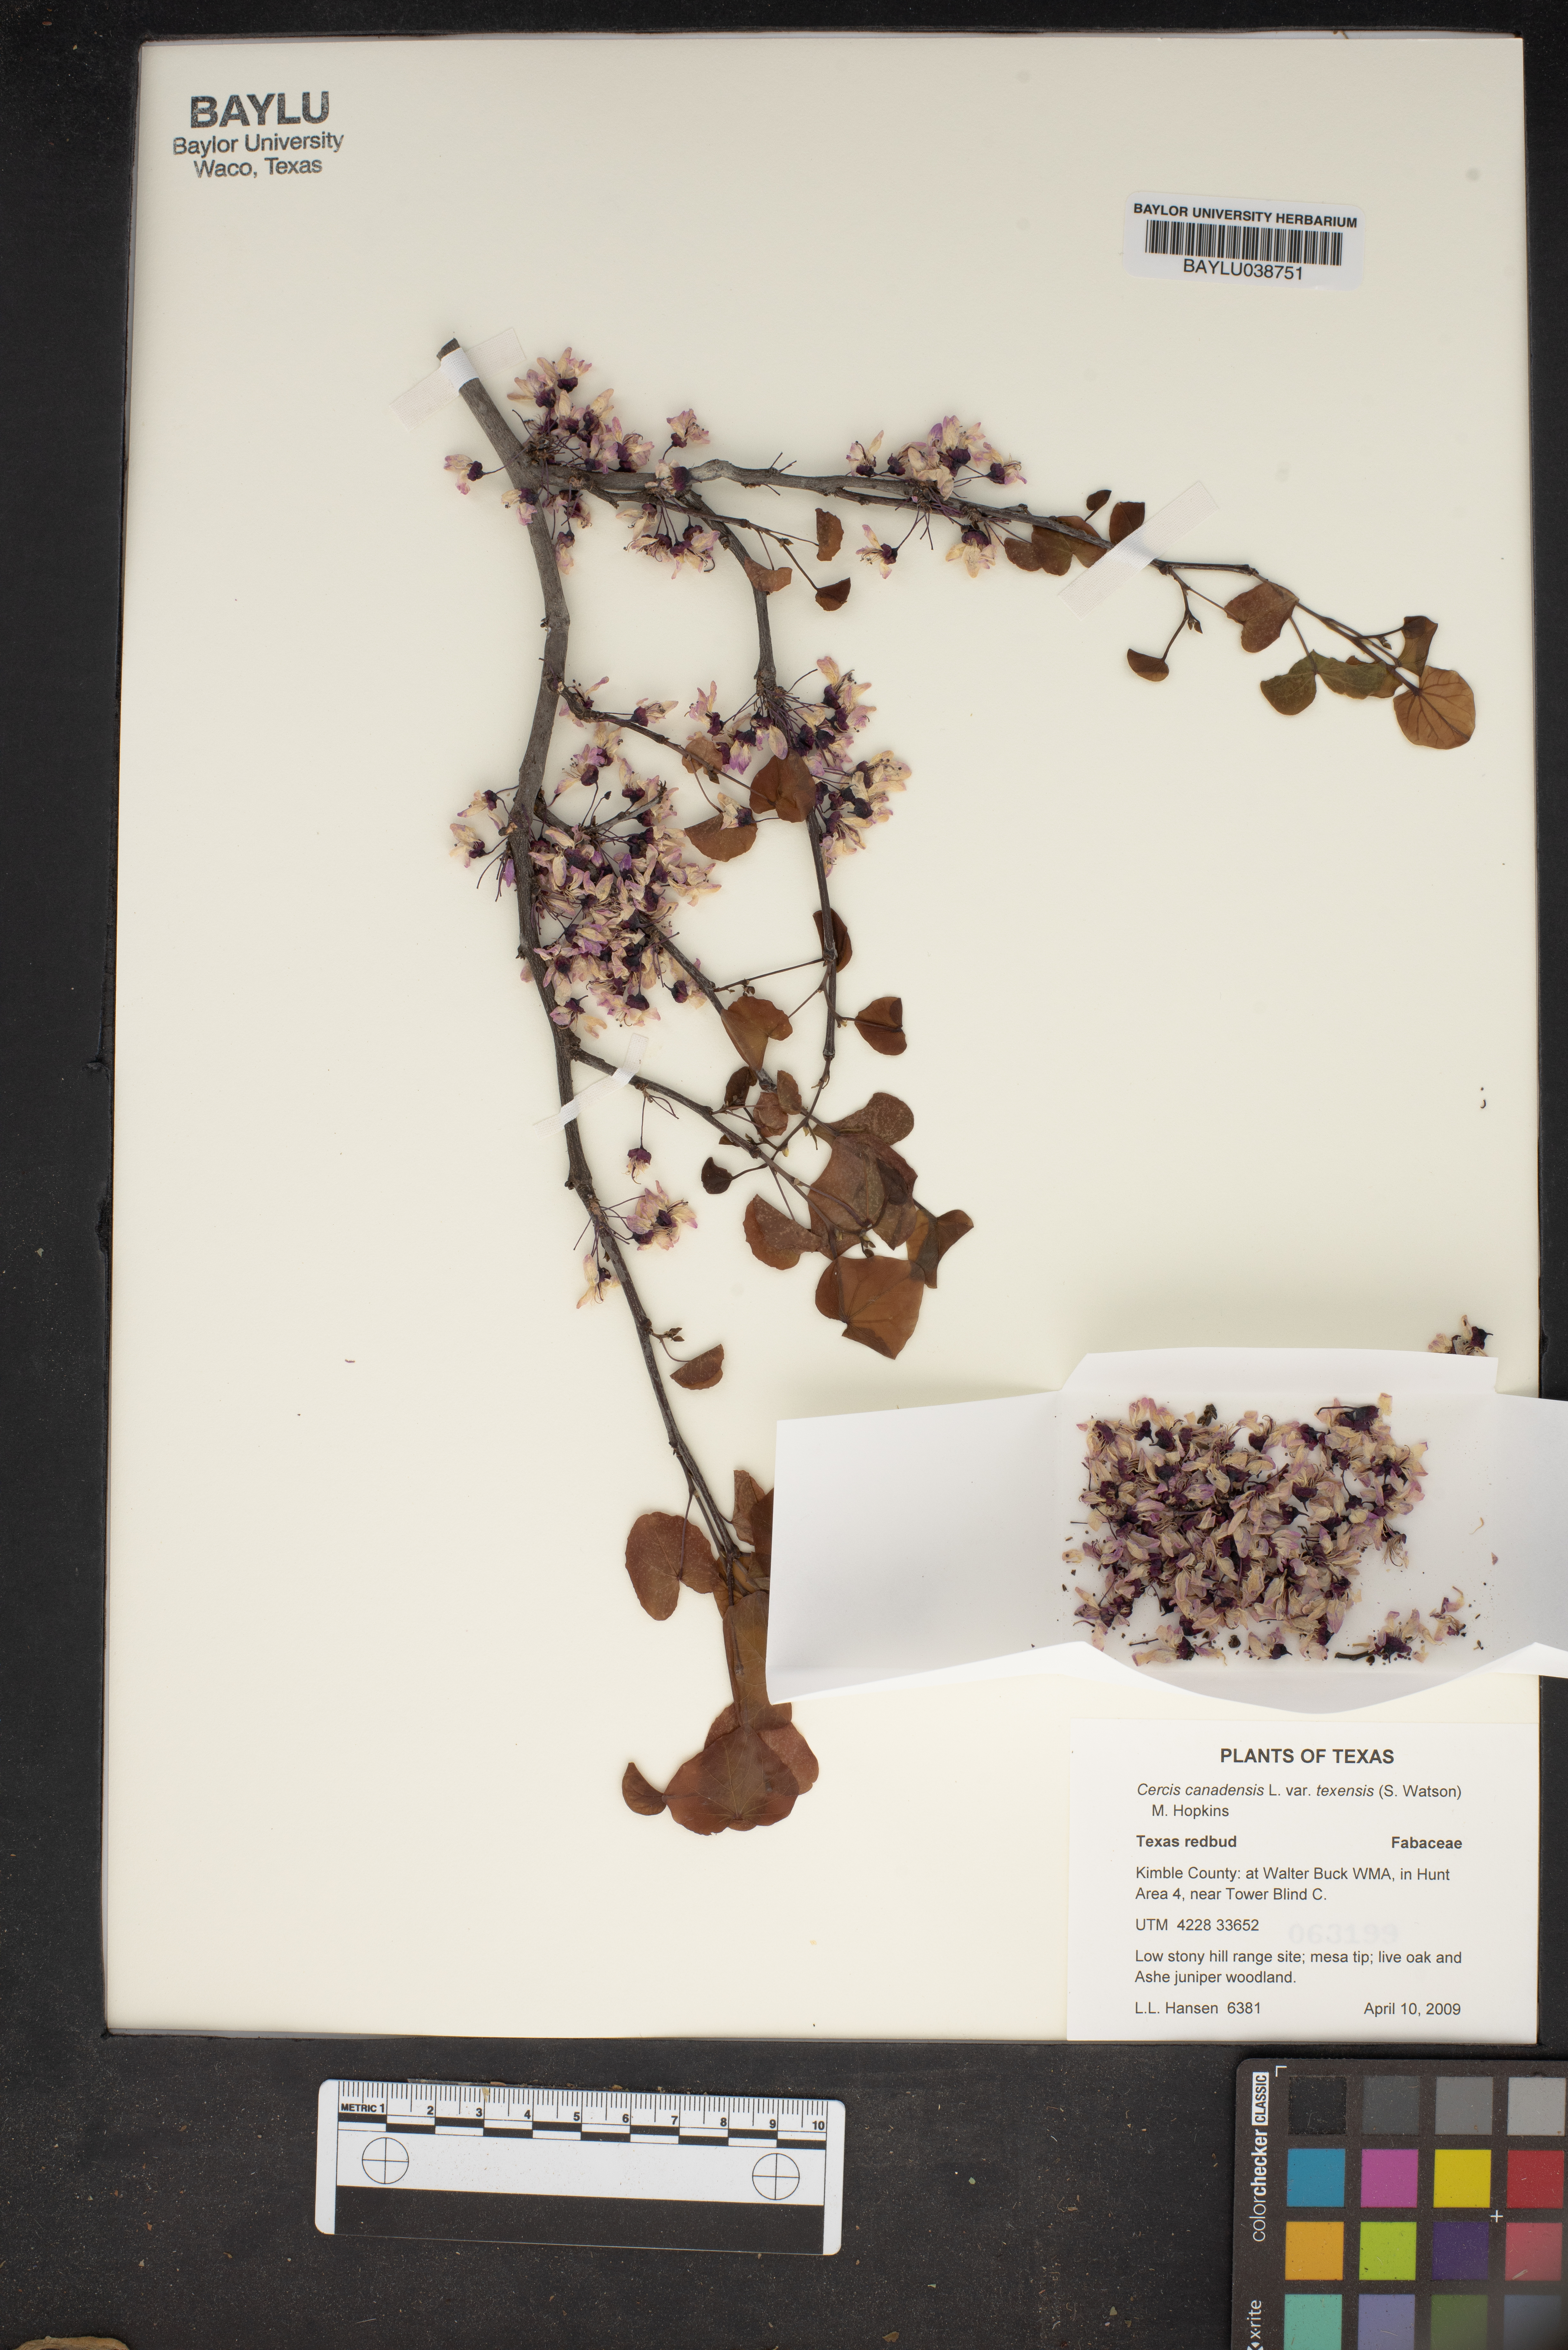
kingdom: Plantae
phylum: Tracheophyta
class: Magnoliopsida
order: Fabales
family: Fabaceae
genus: Cercis
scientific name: Cercis canadensis
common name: Eastern redbud
